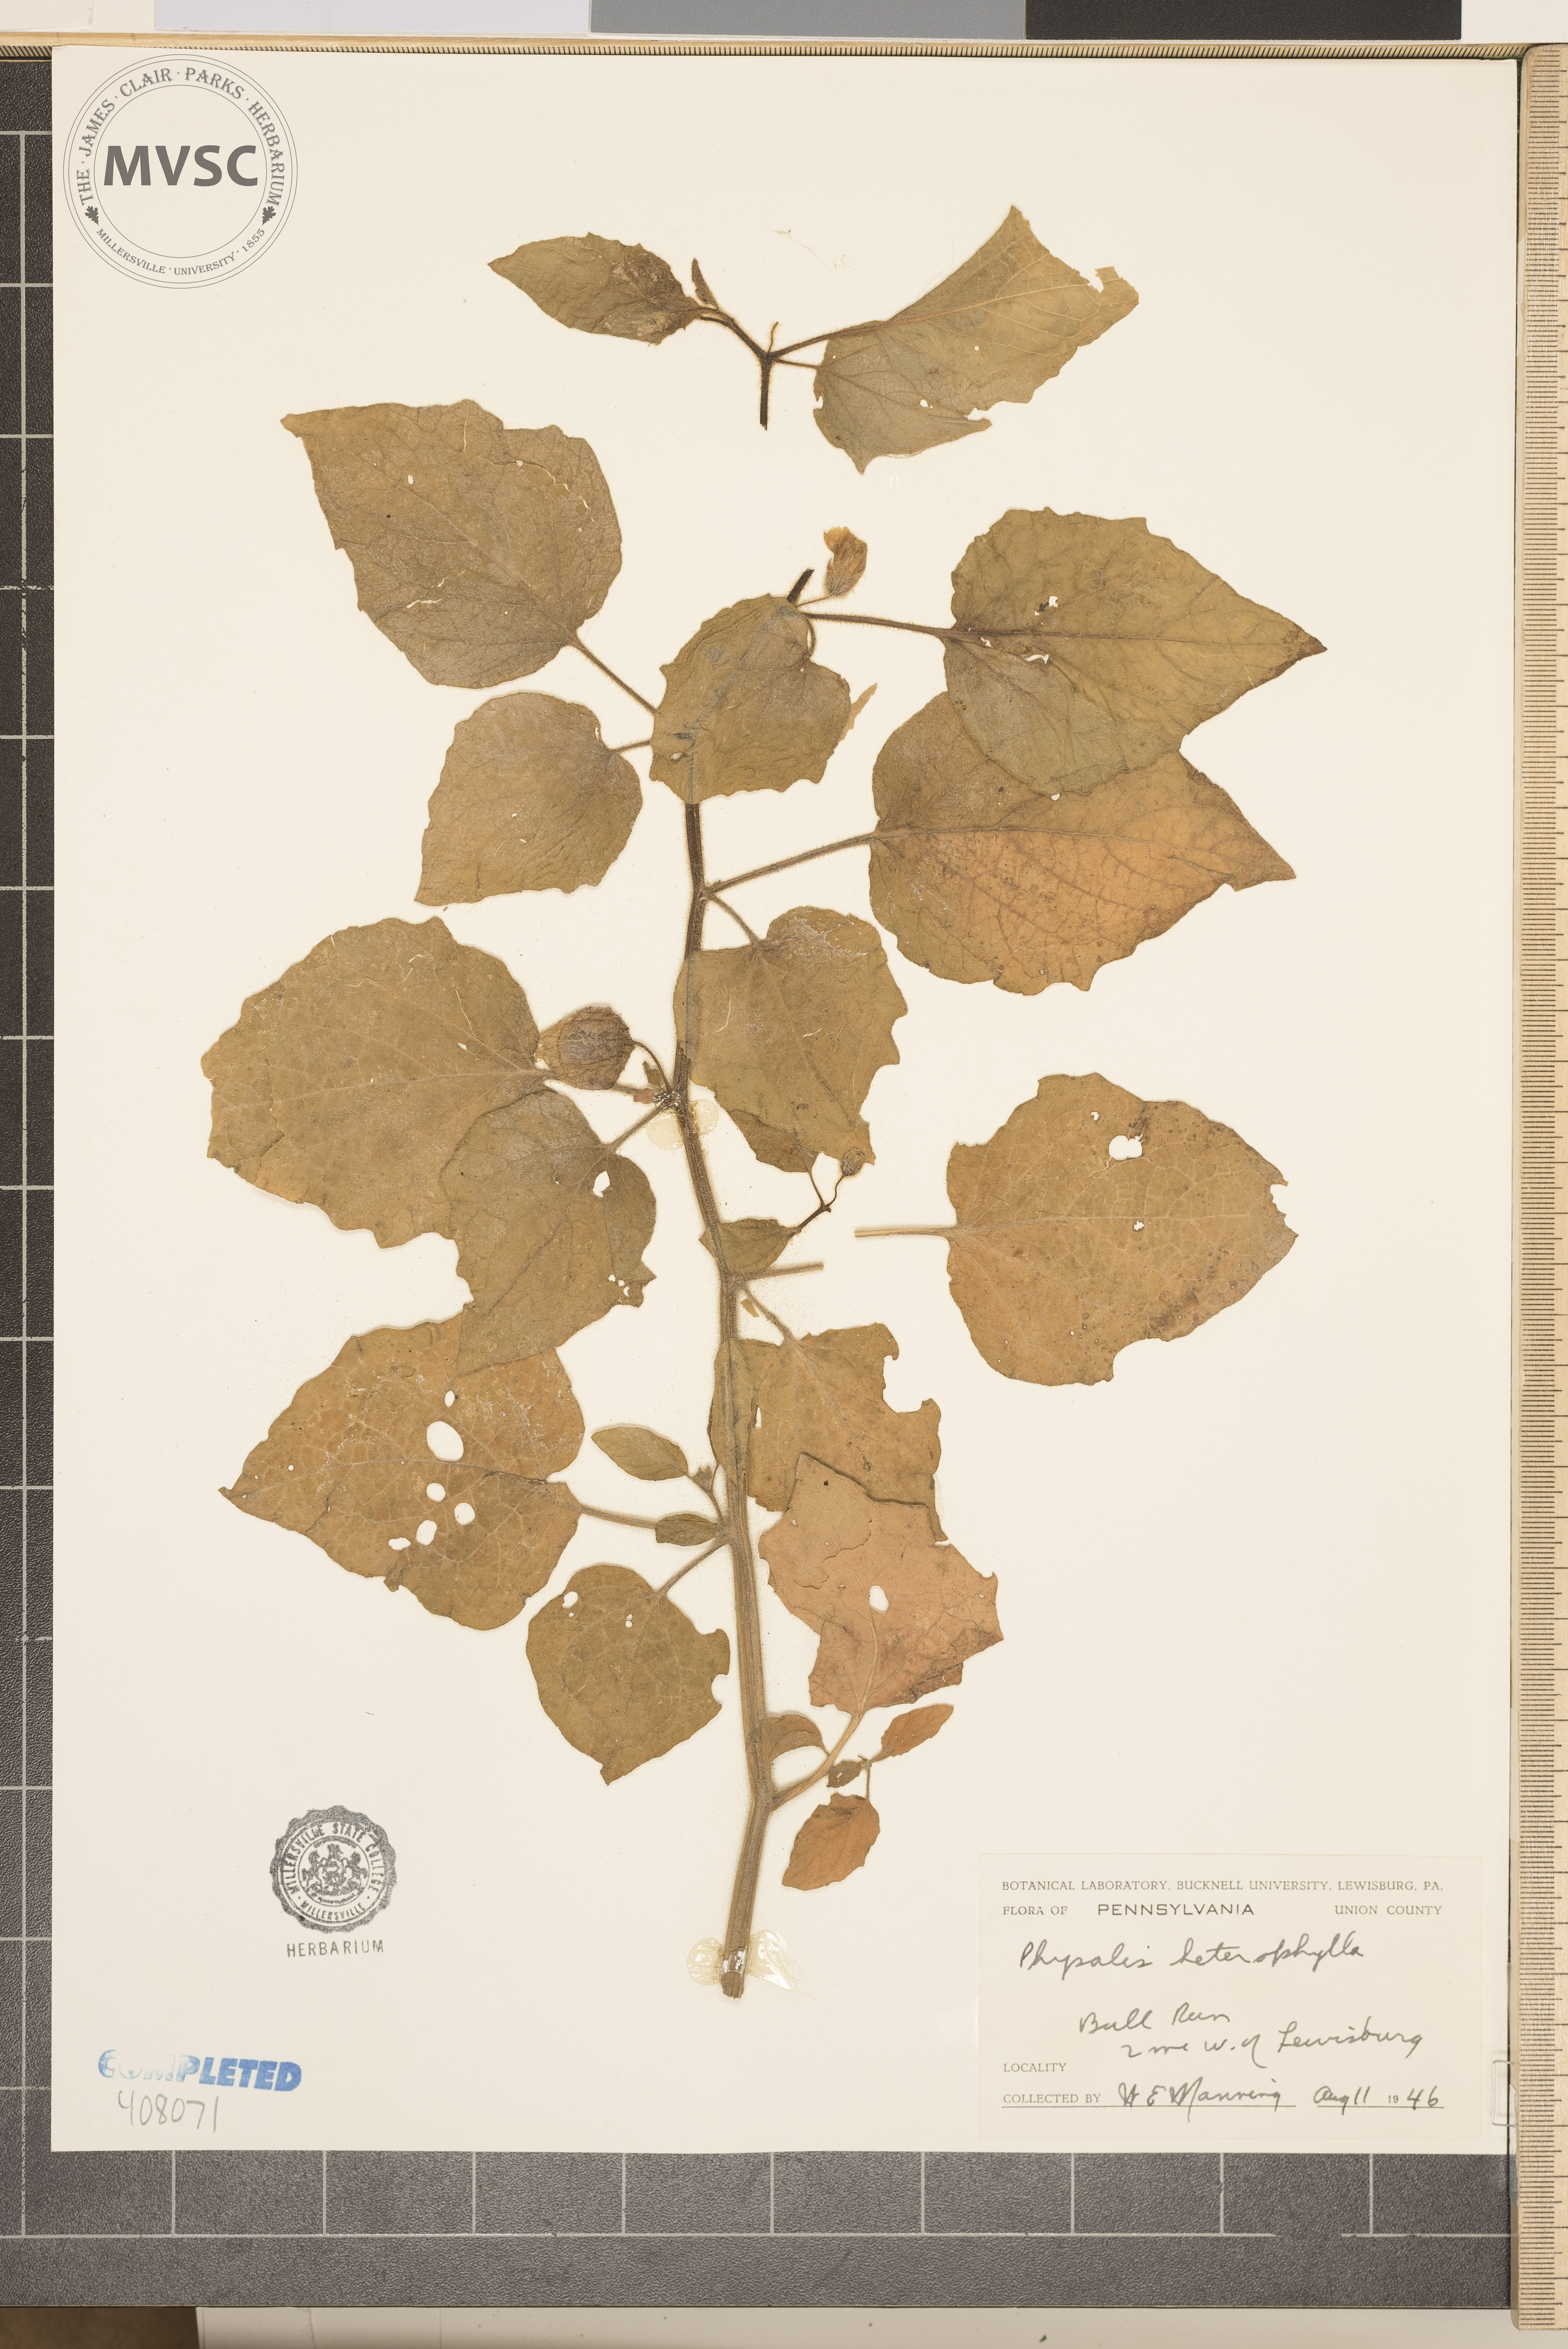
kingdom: Plantae
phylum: Tracheophyta
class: Magnoliopsida
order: Solanales
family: Solanaceae
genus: Physalis
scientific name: Physalis heterophylla
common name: clammy ground-cherry
